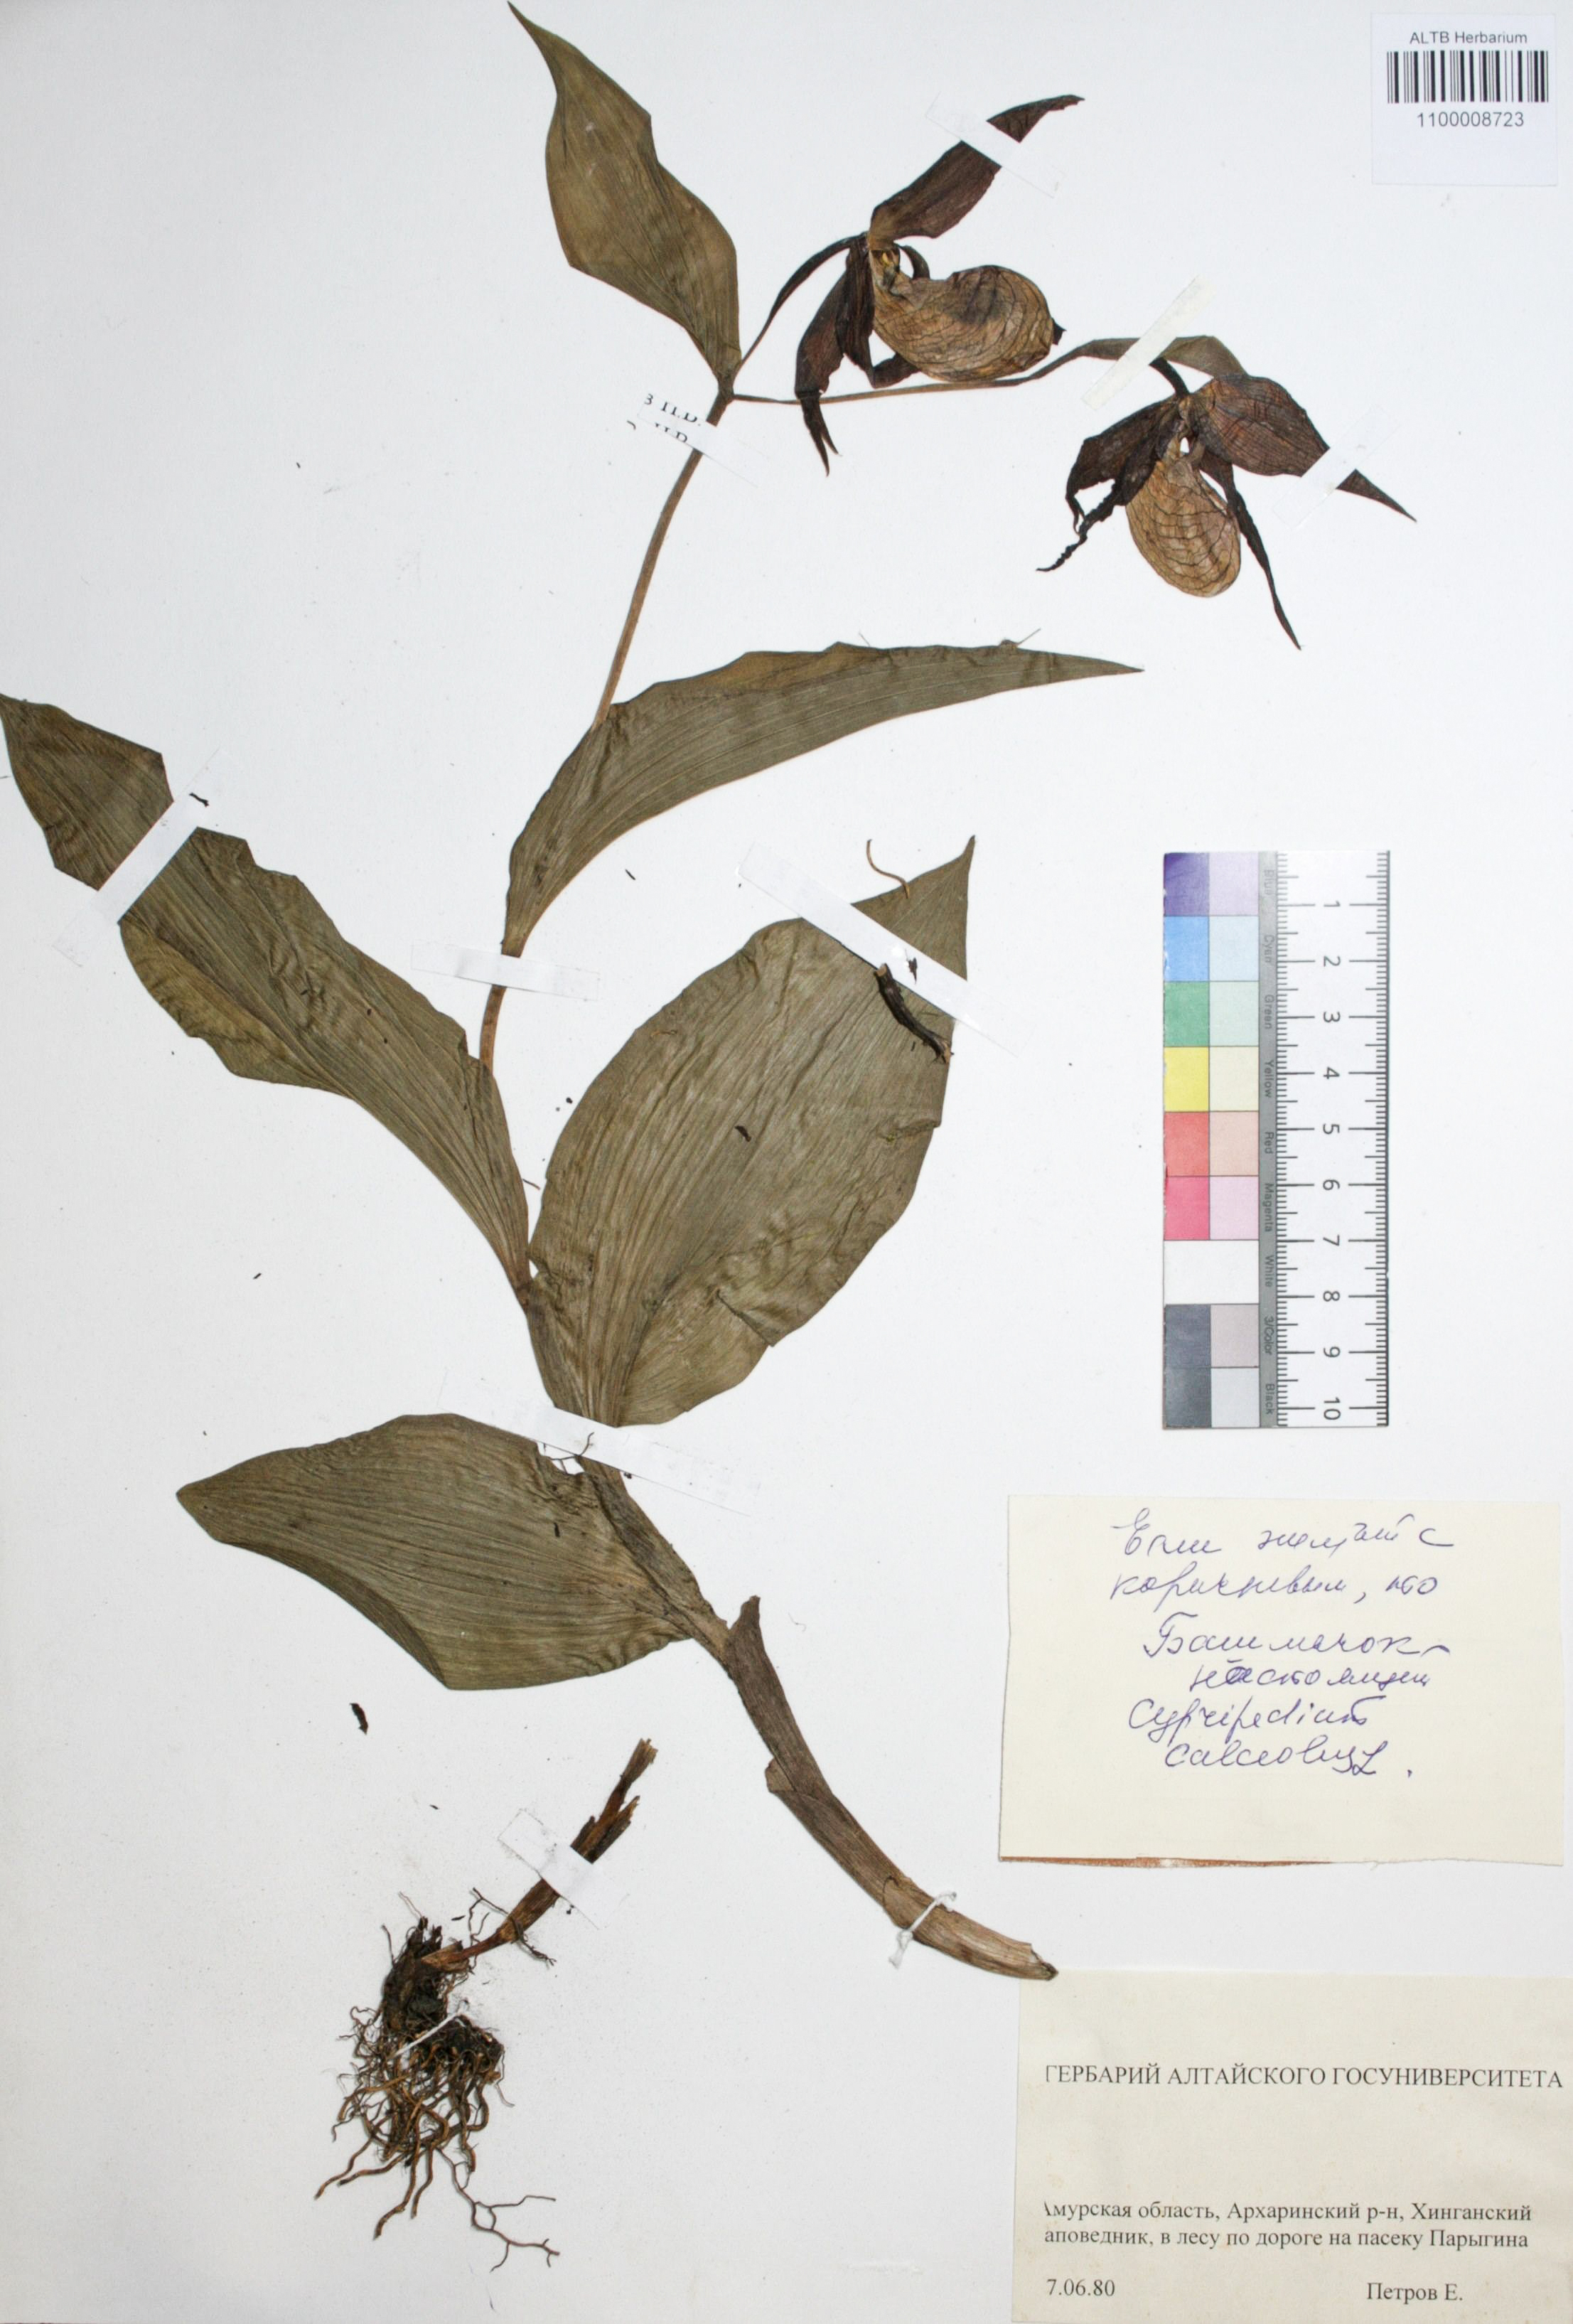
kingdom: Plantae
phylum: Tracheophyta
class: Liliopsida
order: Asparagales
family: Orchidaceae
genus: Cypripedium
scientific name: Cypripedium calceolus
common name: Lady's-slipper
